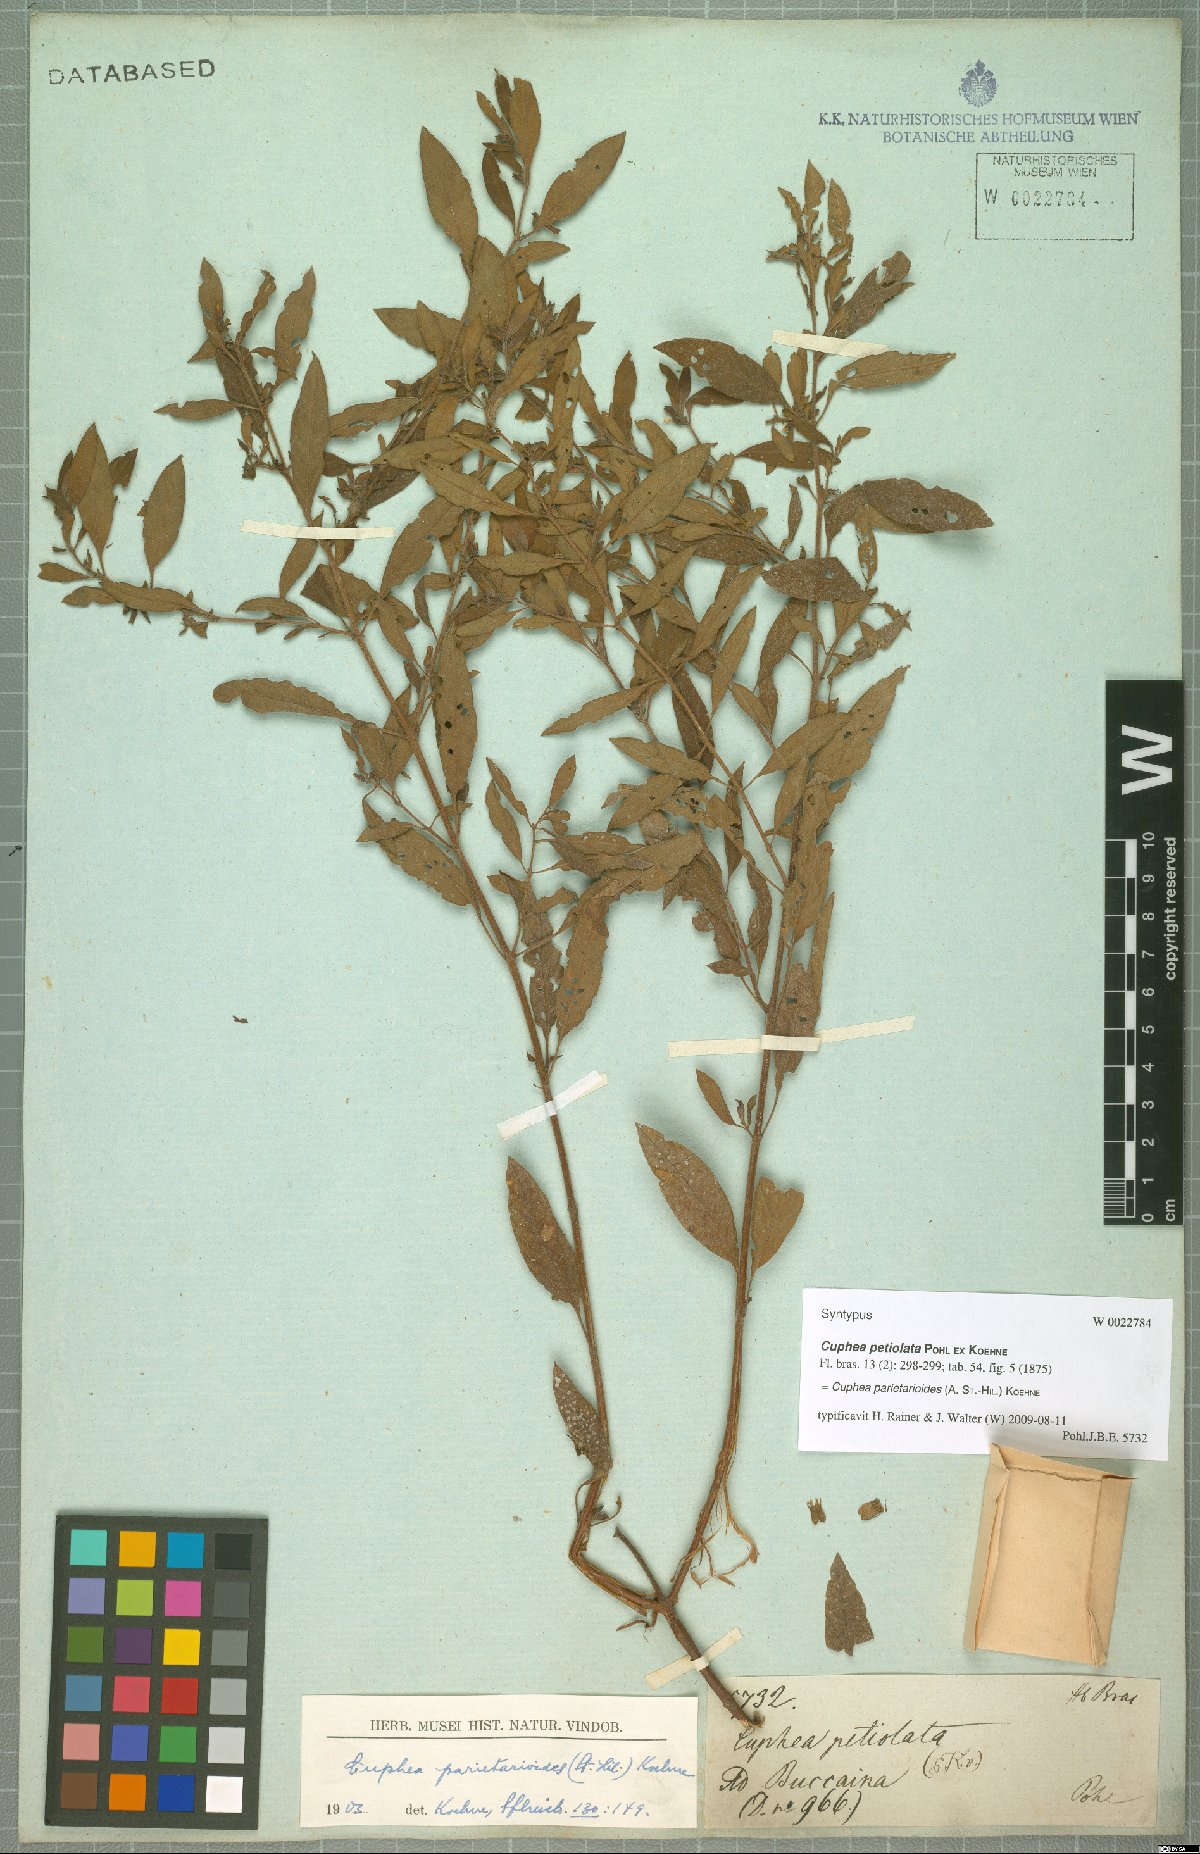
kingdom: Plantae
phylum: Tracheophyta
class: Magnoliopsida
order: Myrtales
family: Lythraceae
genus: Cuphea
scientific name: Cuphea
